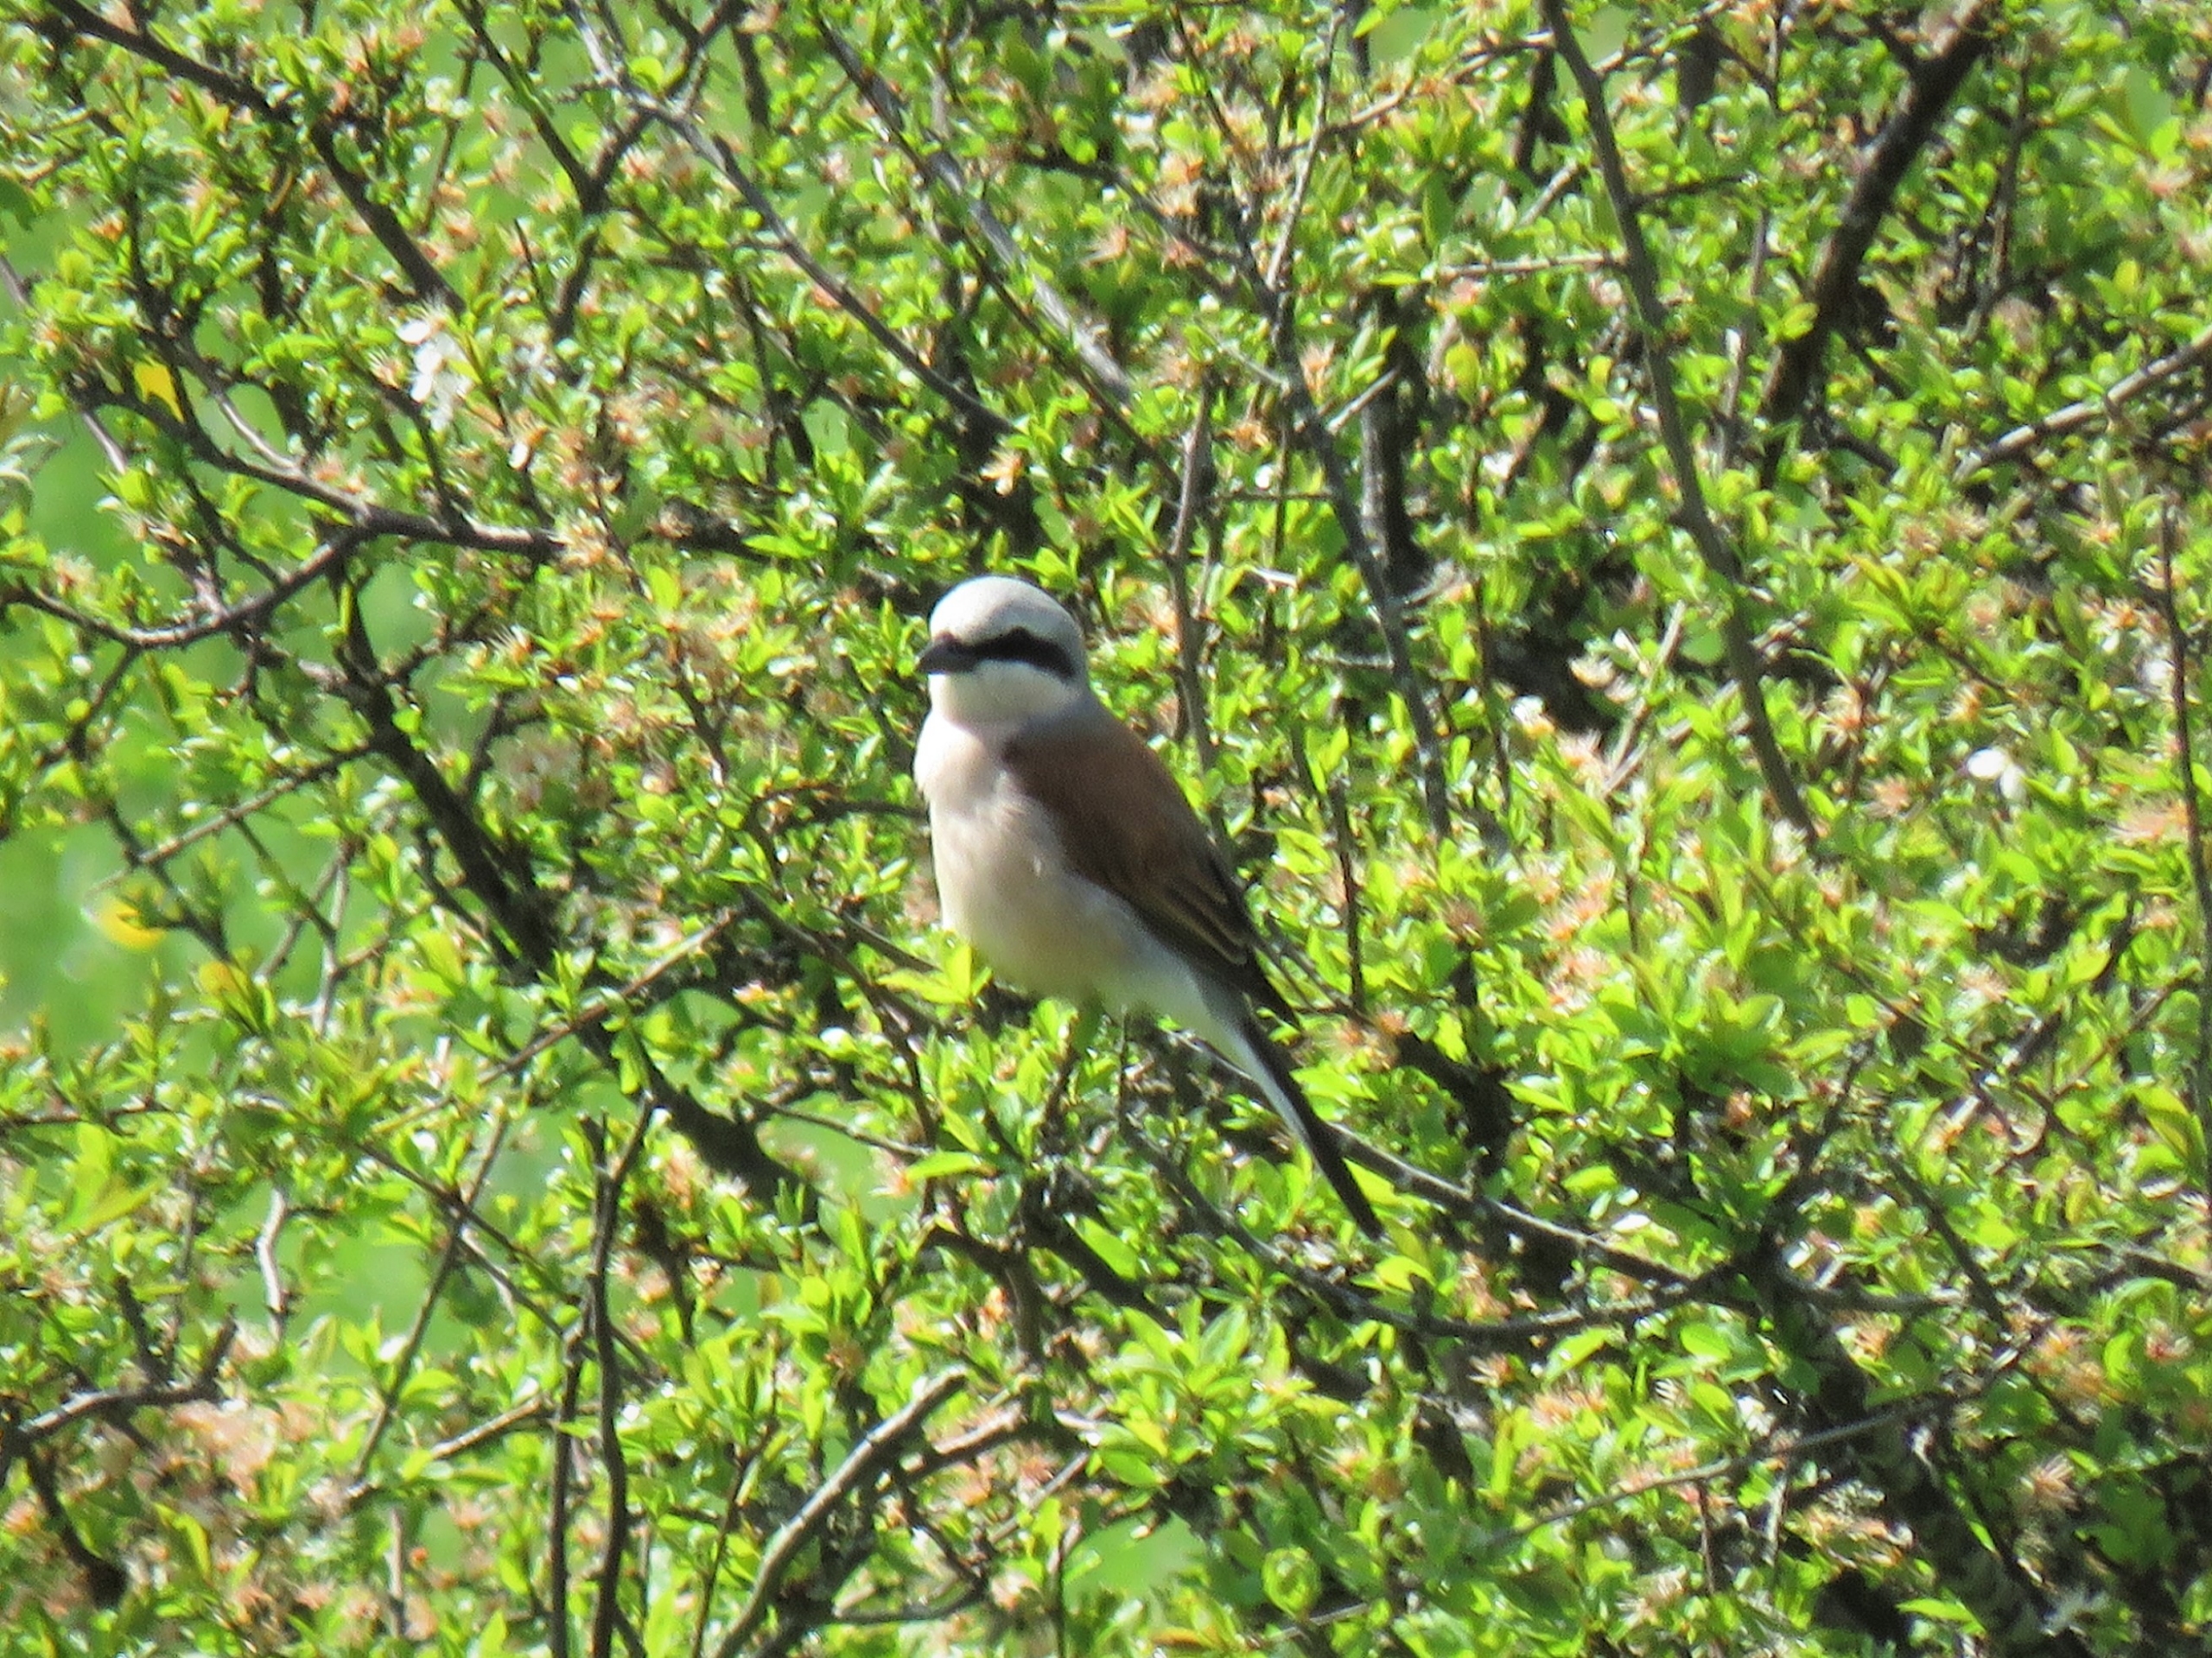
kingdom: Animalia
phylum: Chordata
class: Aves
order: Passeriformes
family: Laniidae
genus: Lanius
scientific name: Lanius collurio
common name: Rødrygget tornskade
